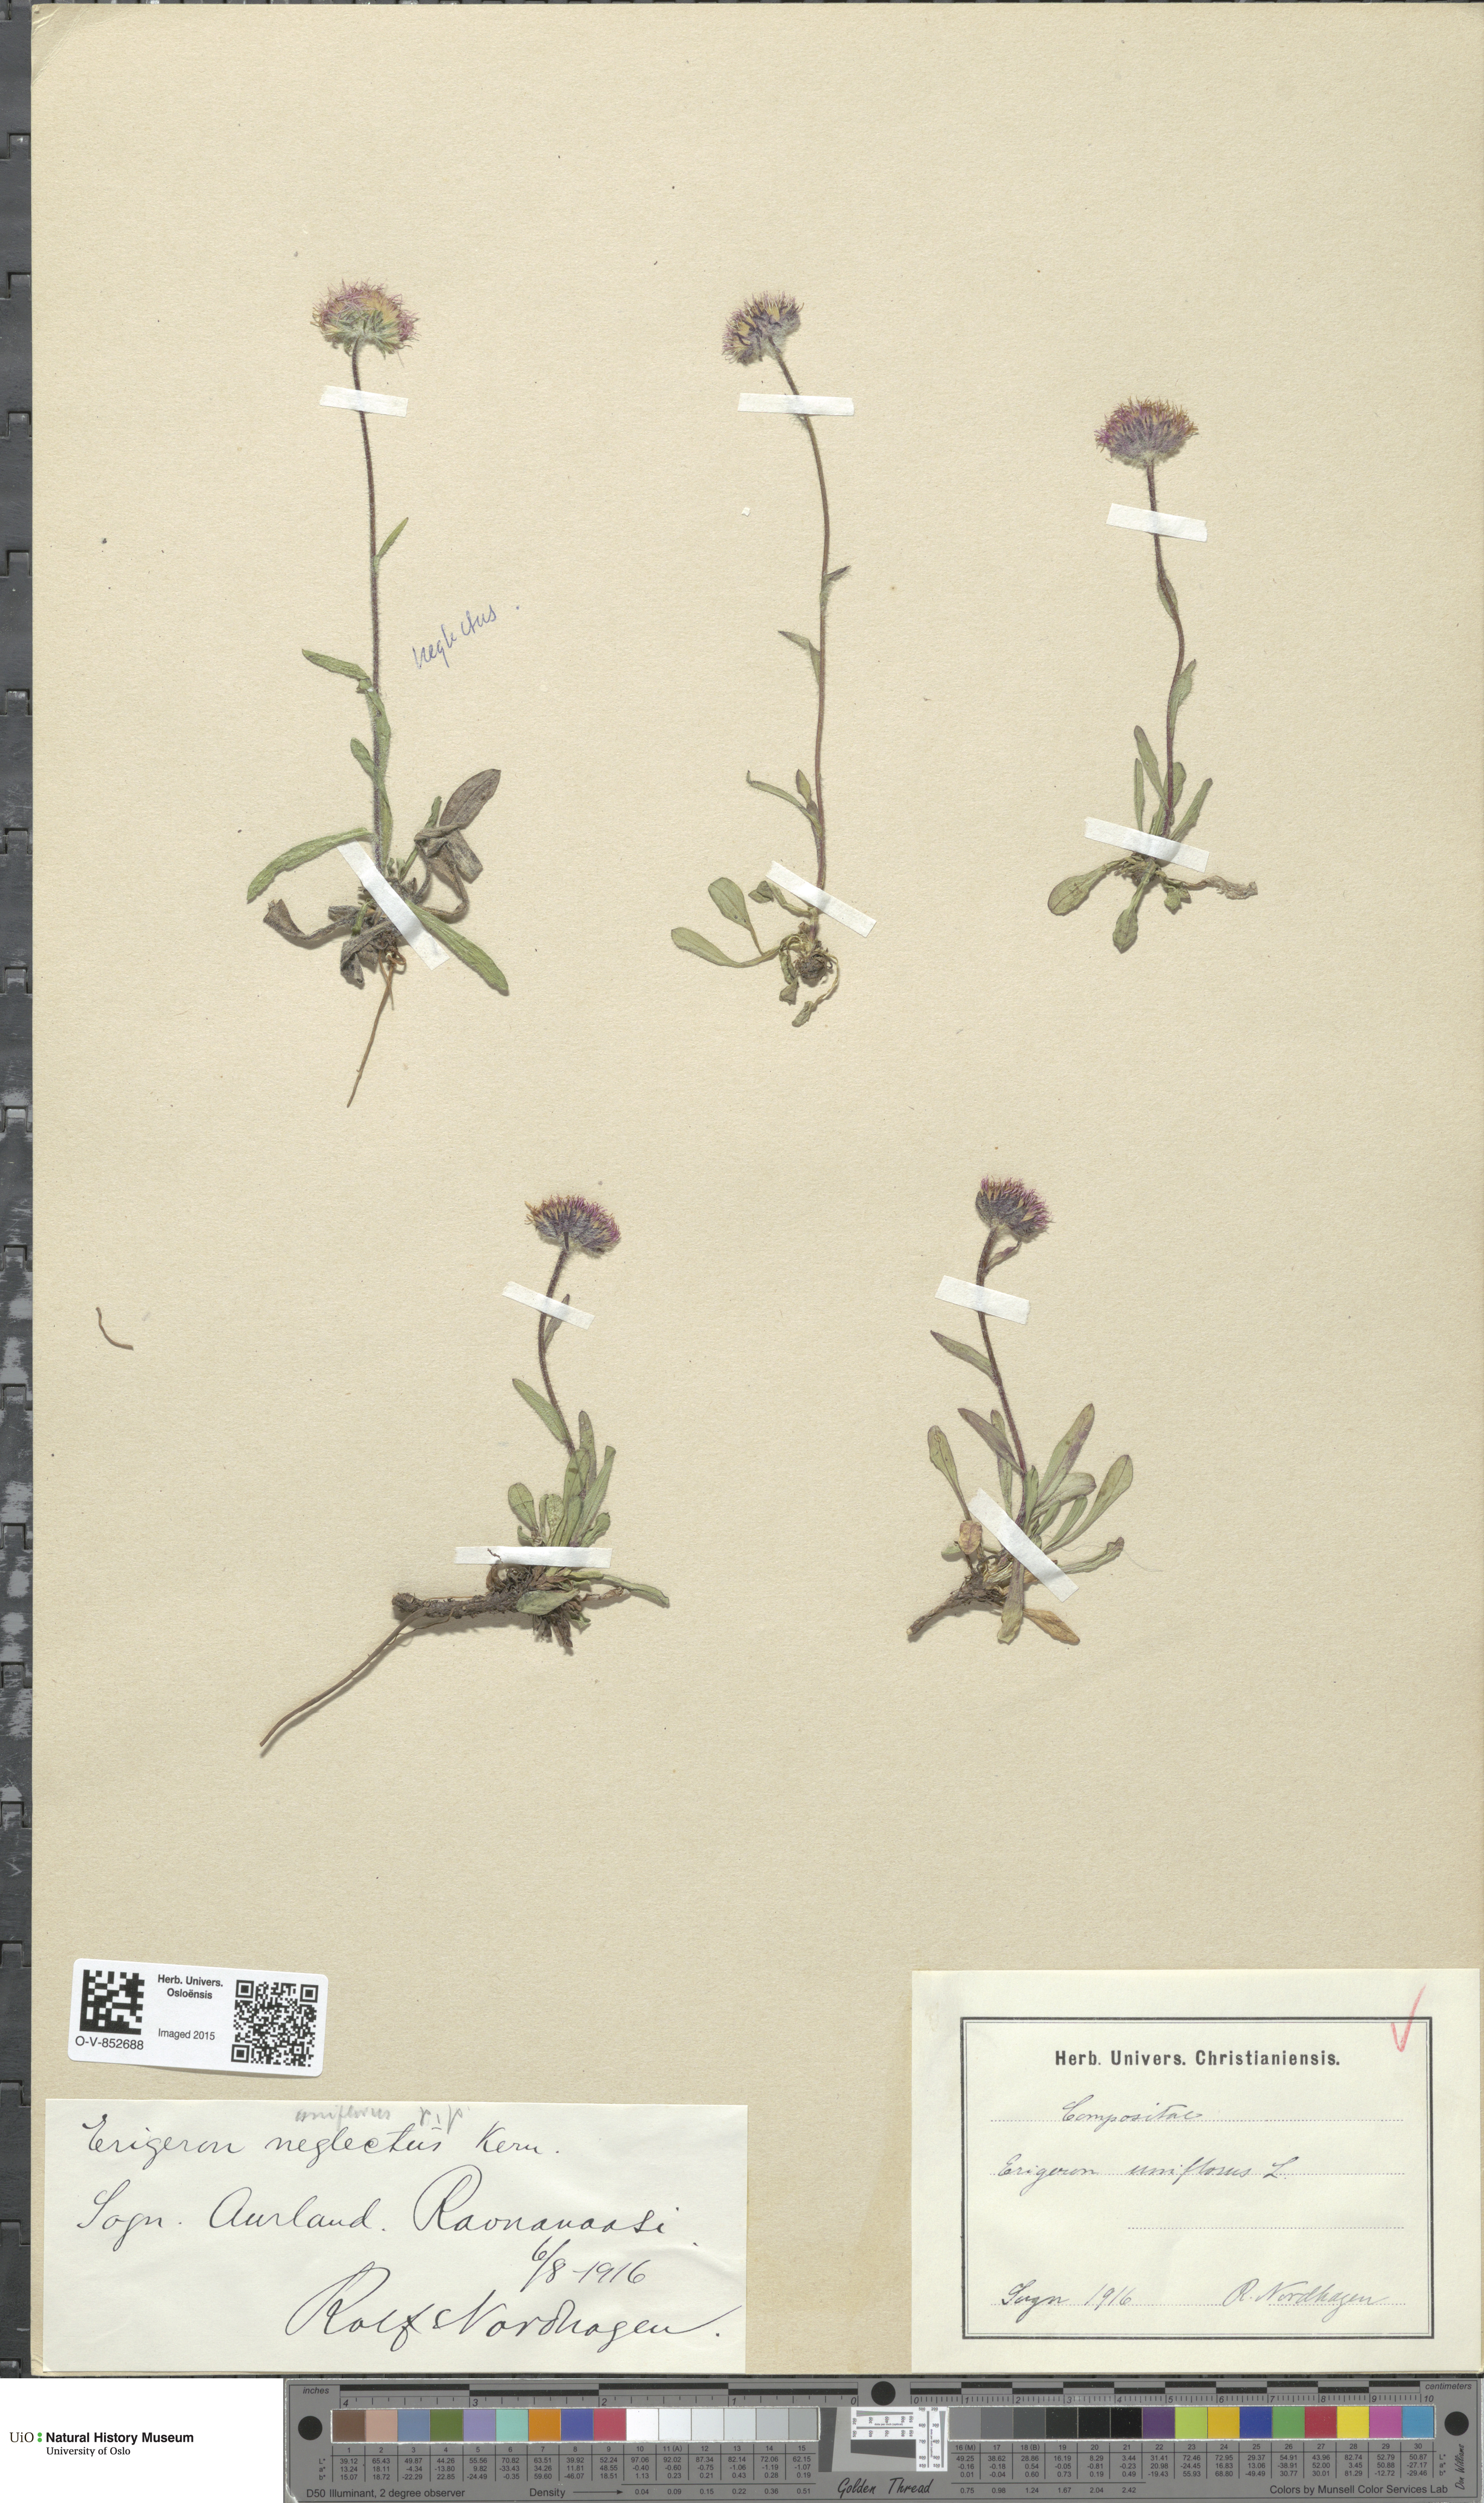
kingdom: Plantae
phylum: Tracheophyta
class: Magnoliopsida
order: Asterales
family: Asteraceae
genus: Erigeron
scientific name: Erigeron eriocephalus
